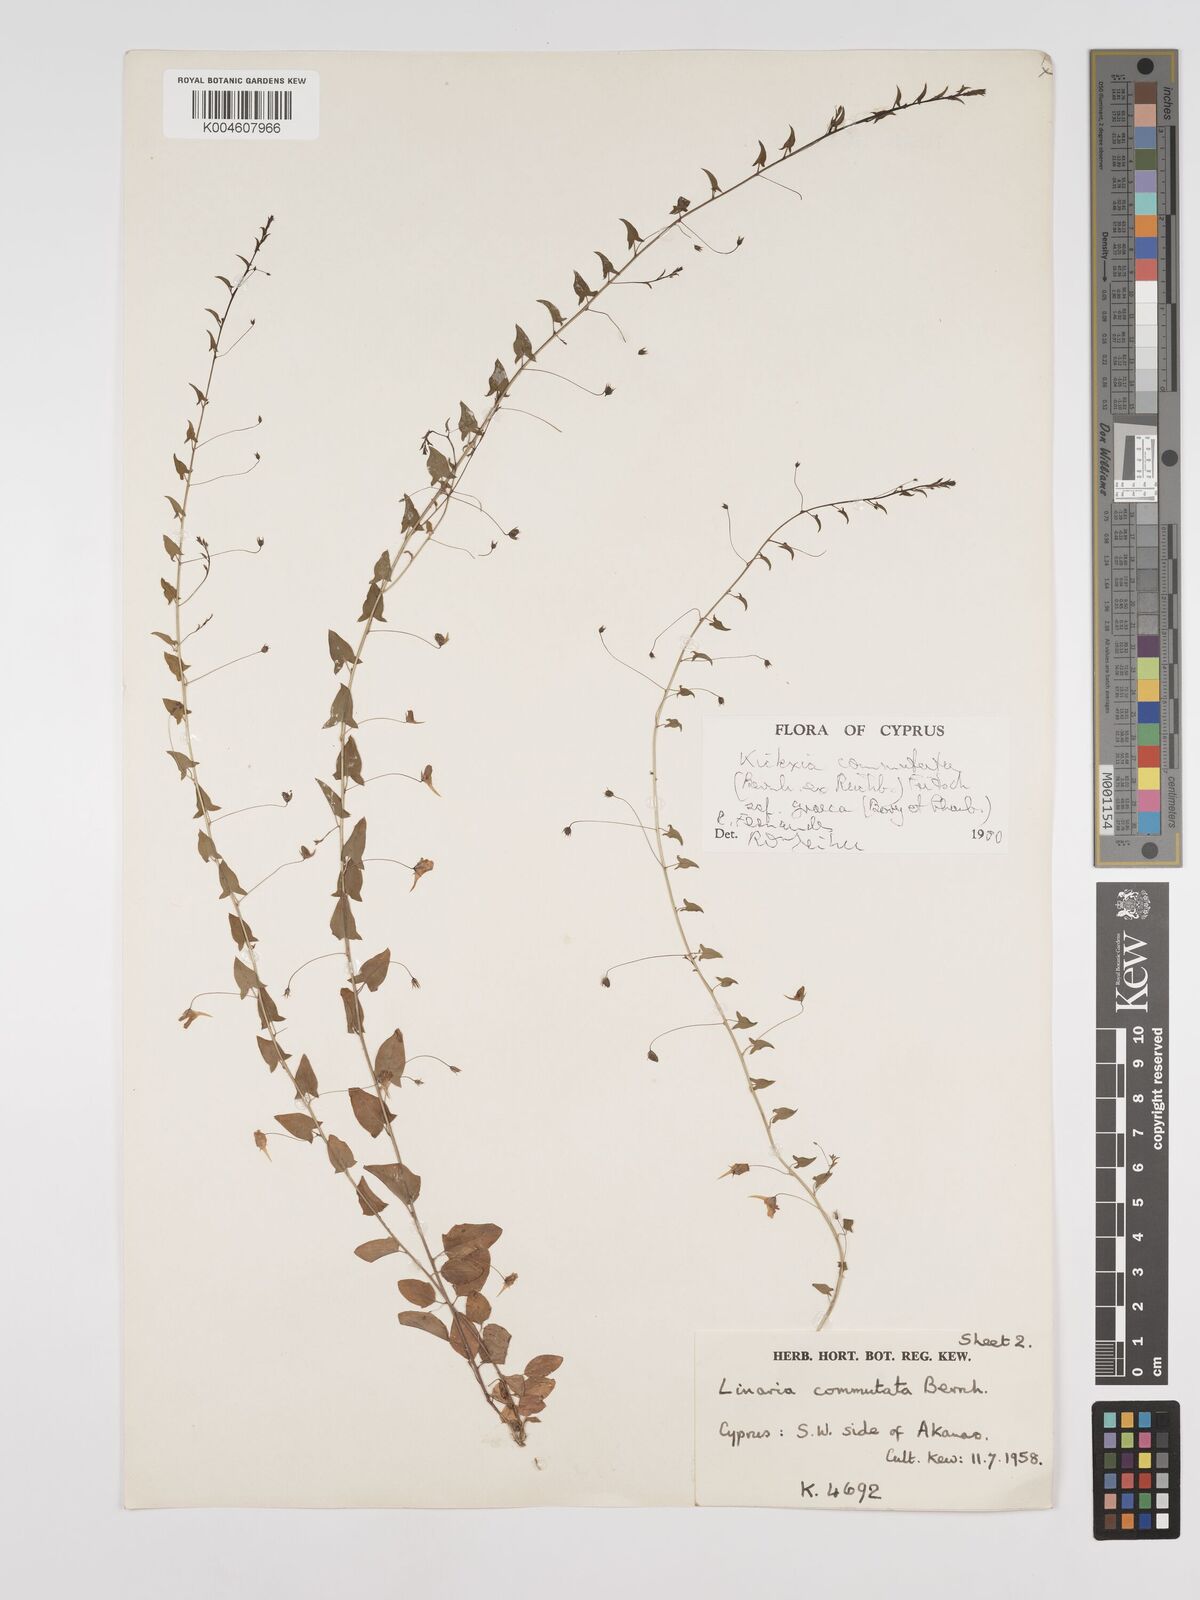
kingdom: Plantae
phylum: Tracheophyta
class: Magnoliopsida
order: Lamiales
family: Plantaginaceae
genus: Kickxia
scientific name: Kickxia commutata
